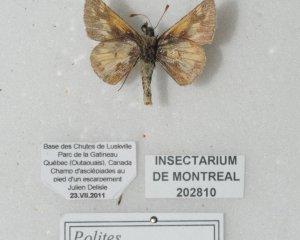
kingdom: Animalia
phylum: Arthropoda
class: Insecta
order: Lepidoptera
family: Hesperiidae
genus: Polites
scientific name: Polites coras
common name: Peck's Skipper
